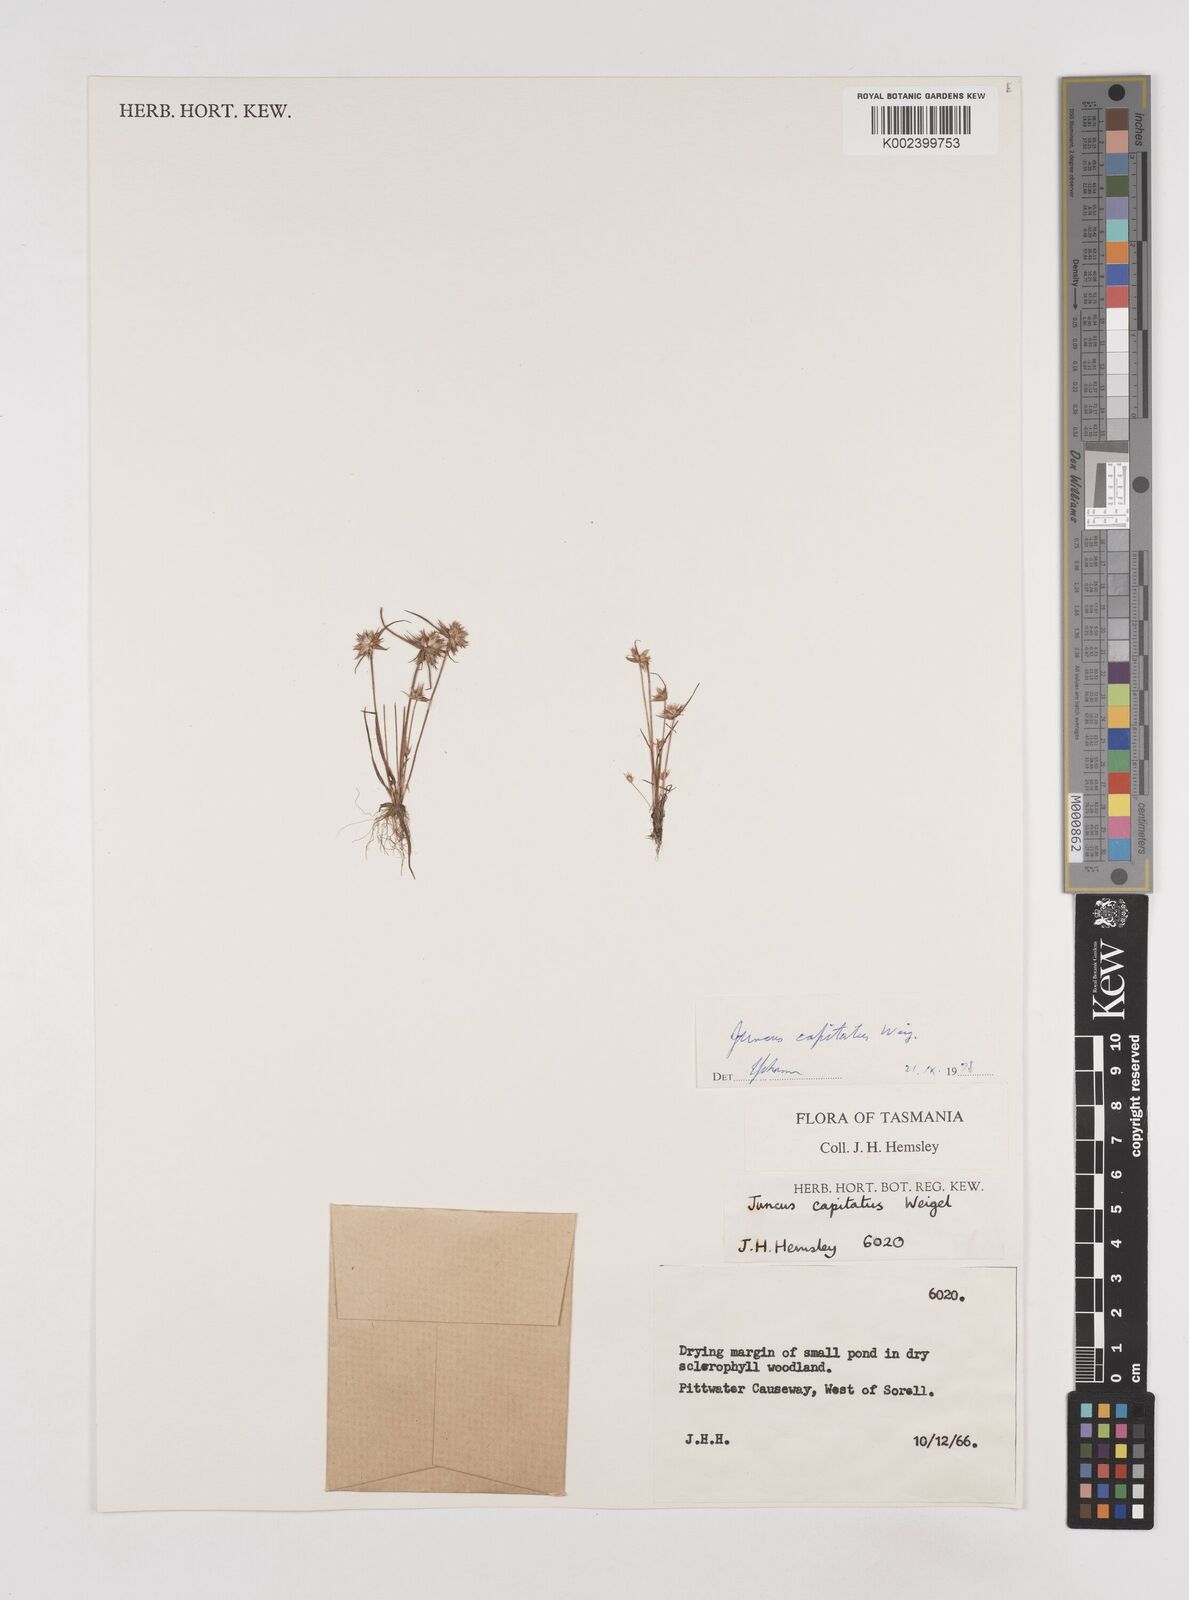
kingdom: Plantae
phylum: Tracheophyta
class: Liliopsida
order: Poales
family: Juncaceae
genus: Juncus
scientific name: Juncus capitatus
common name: Dwarf rush
